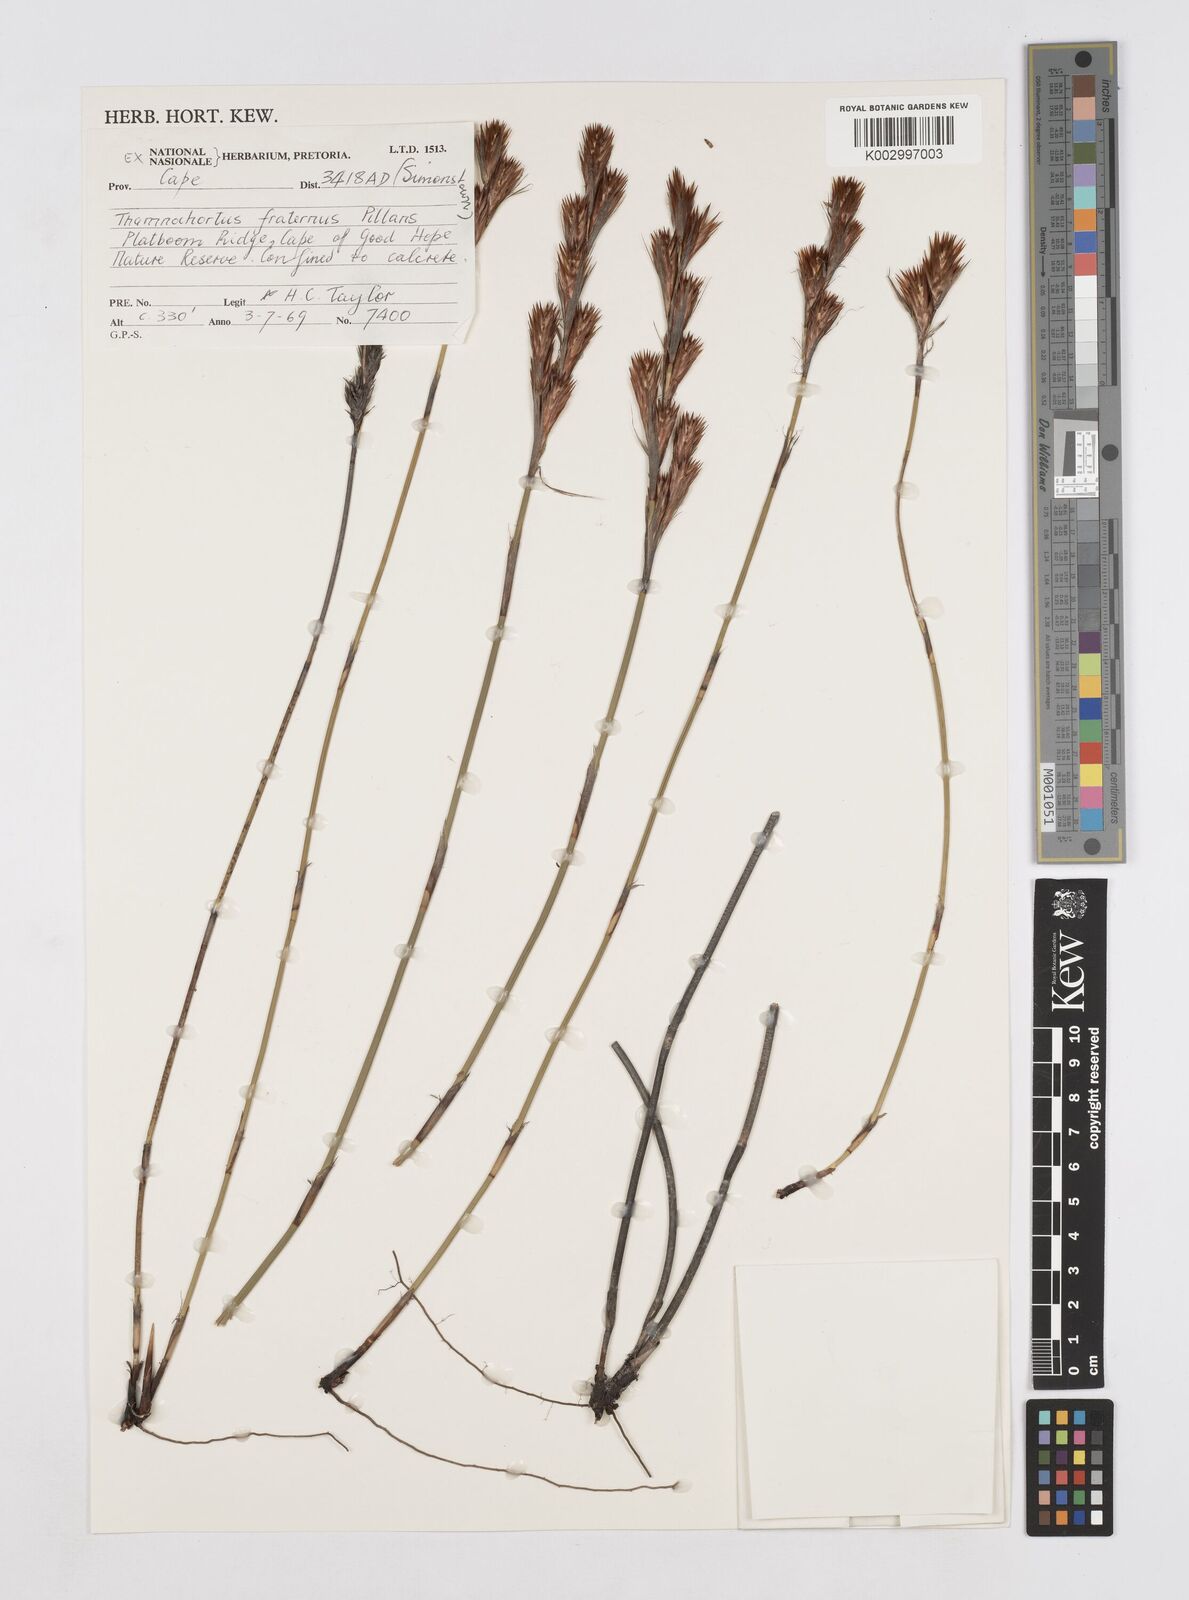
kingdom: Plantae
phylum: Tracheophyta
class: Liliopsida
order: Poales
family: Restionaceae
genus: Thamnochortus
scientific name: Thamnochortus fraternus
